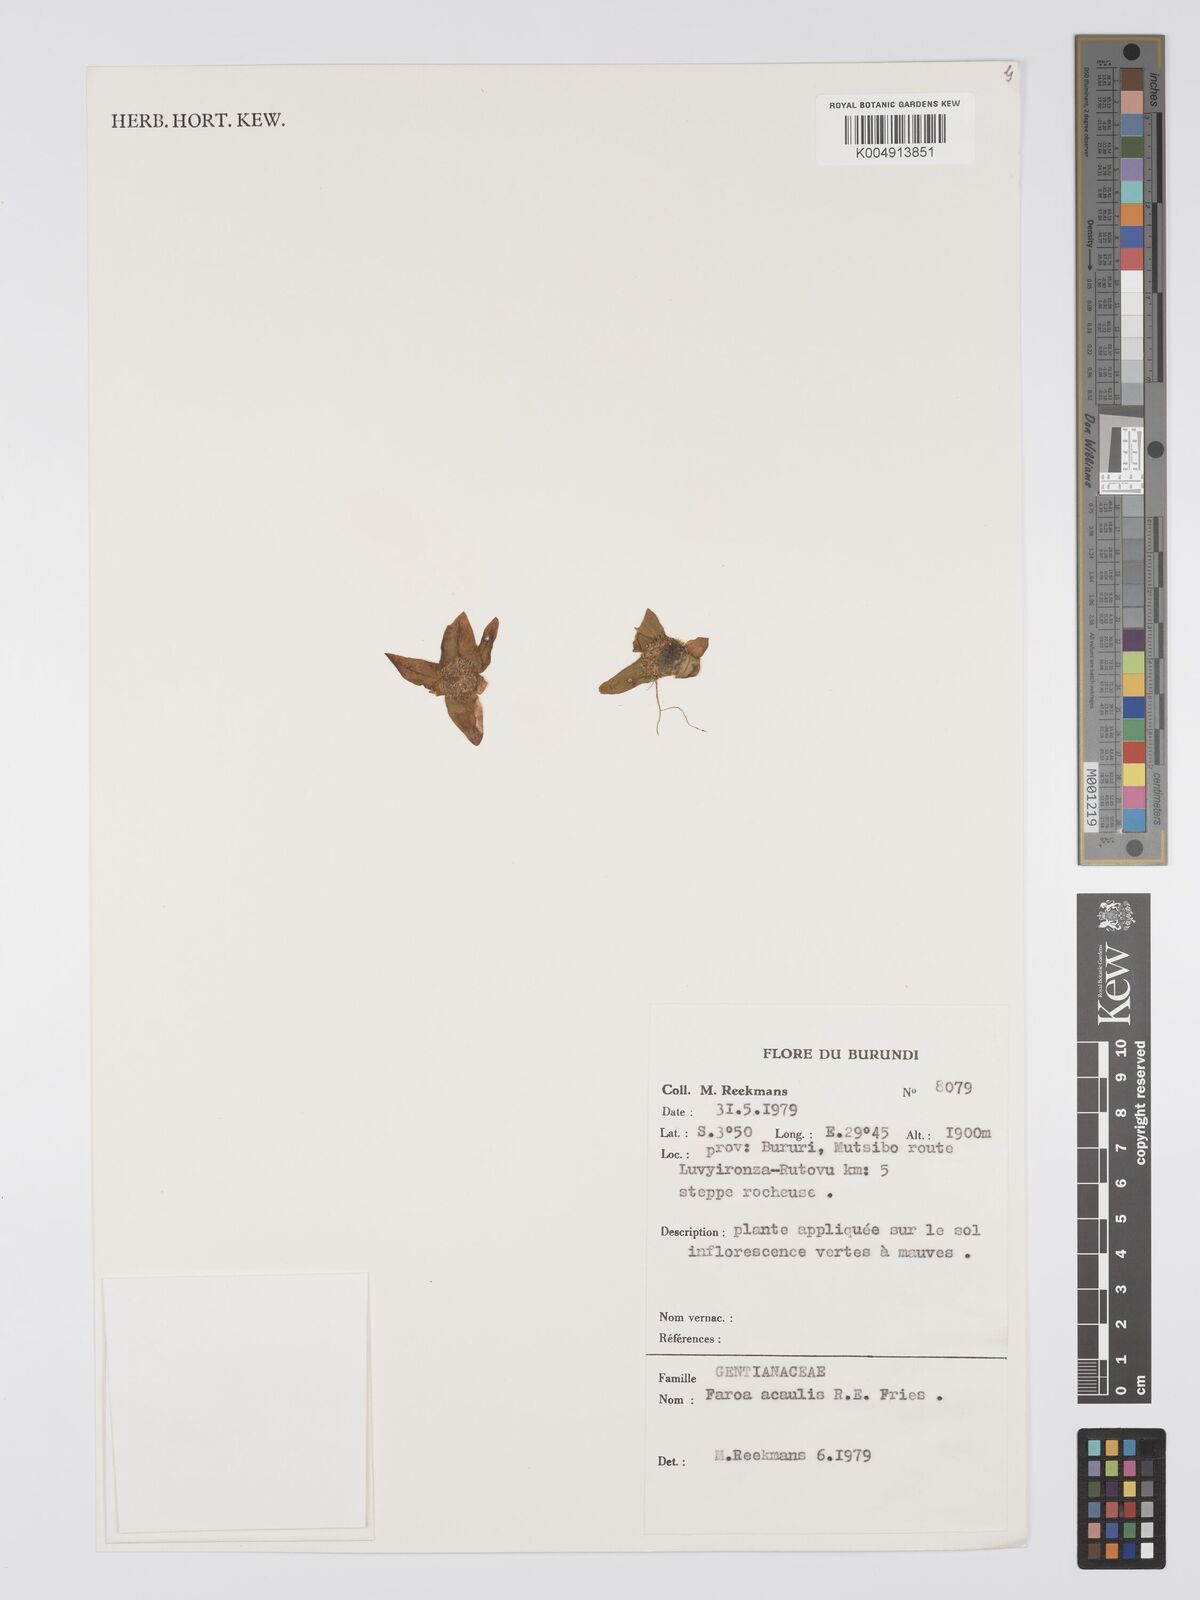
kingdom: Plantae
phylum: Tracheophyta
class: Magnoliopsida
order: Gentianales
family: Gentianaceae
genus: Faroa
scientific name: Faroa acaulis
